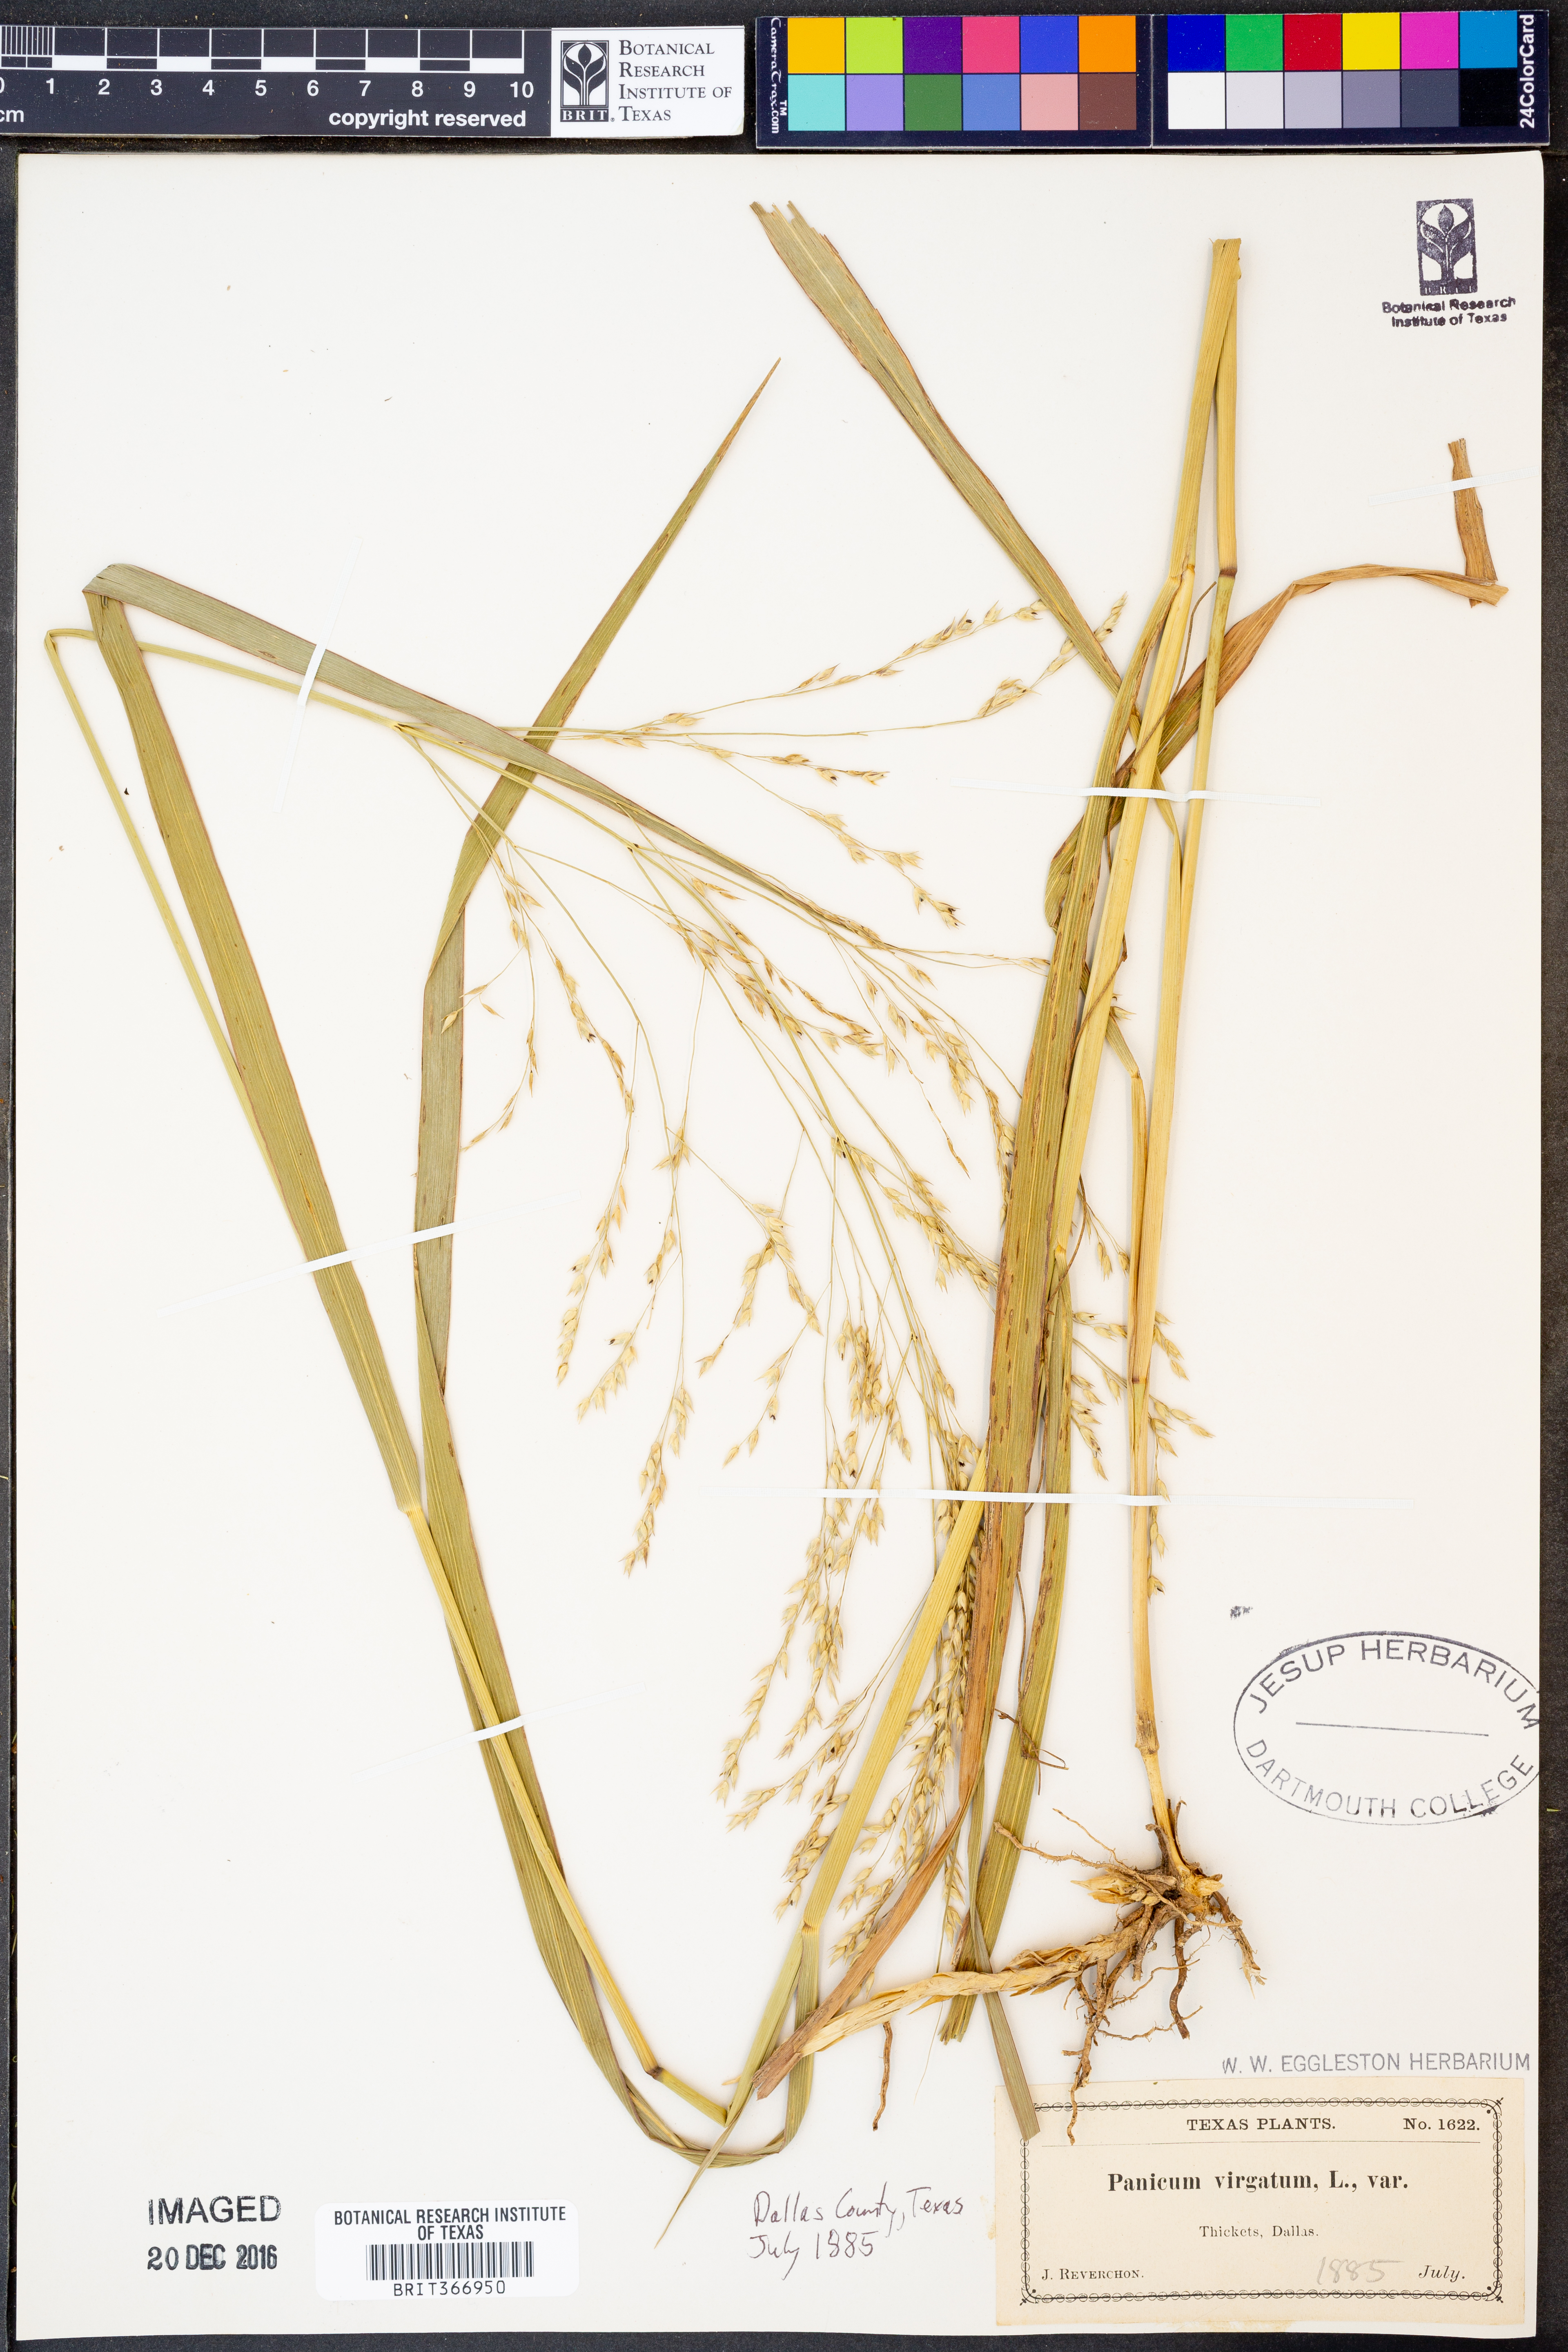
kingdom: Plantae
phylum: Tracheophyta
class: Liliopsida
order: Poales
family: Poaceae
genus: Panicum
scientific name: Panicum virgatum
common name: Switchgrass
